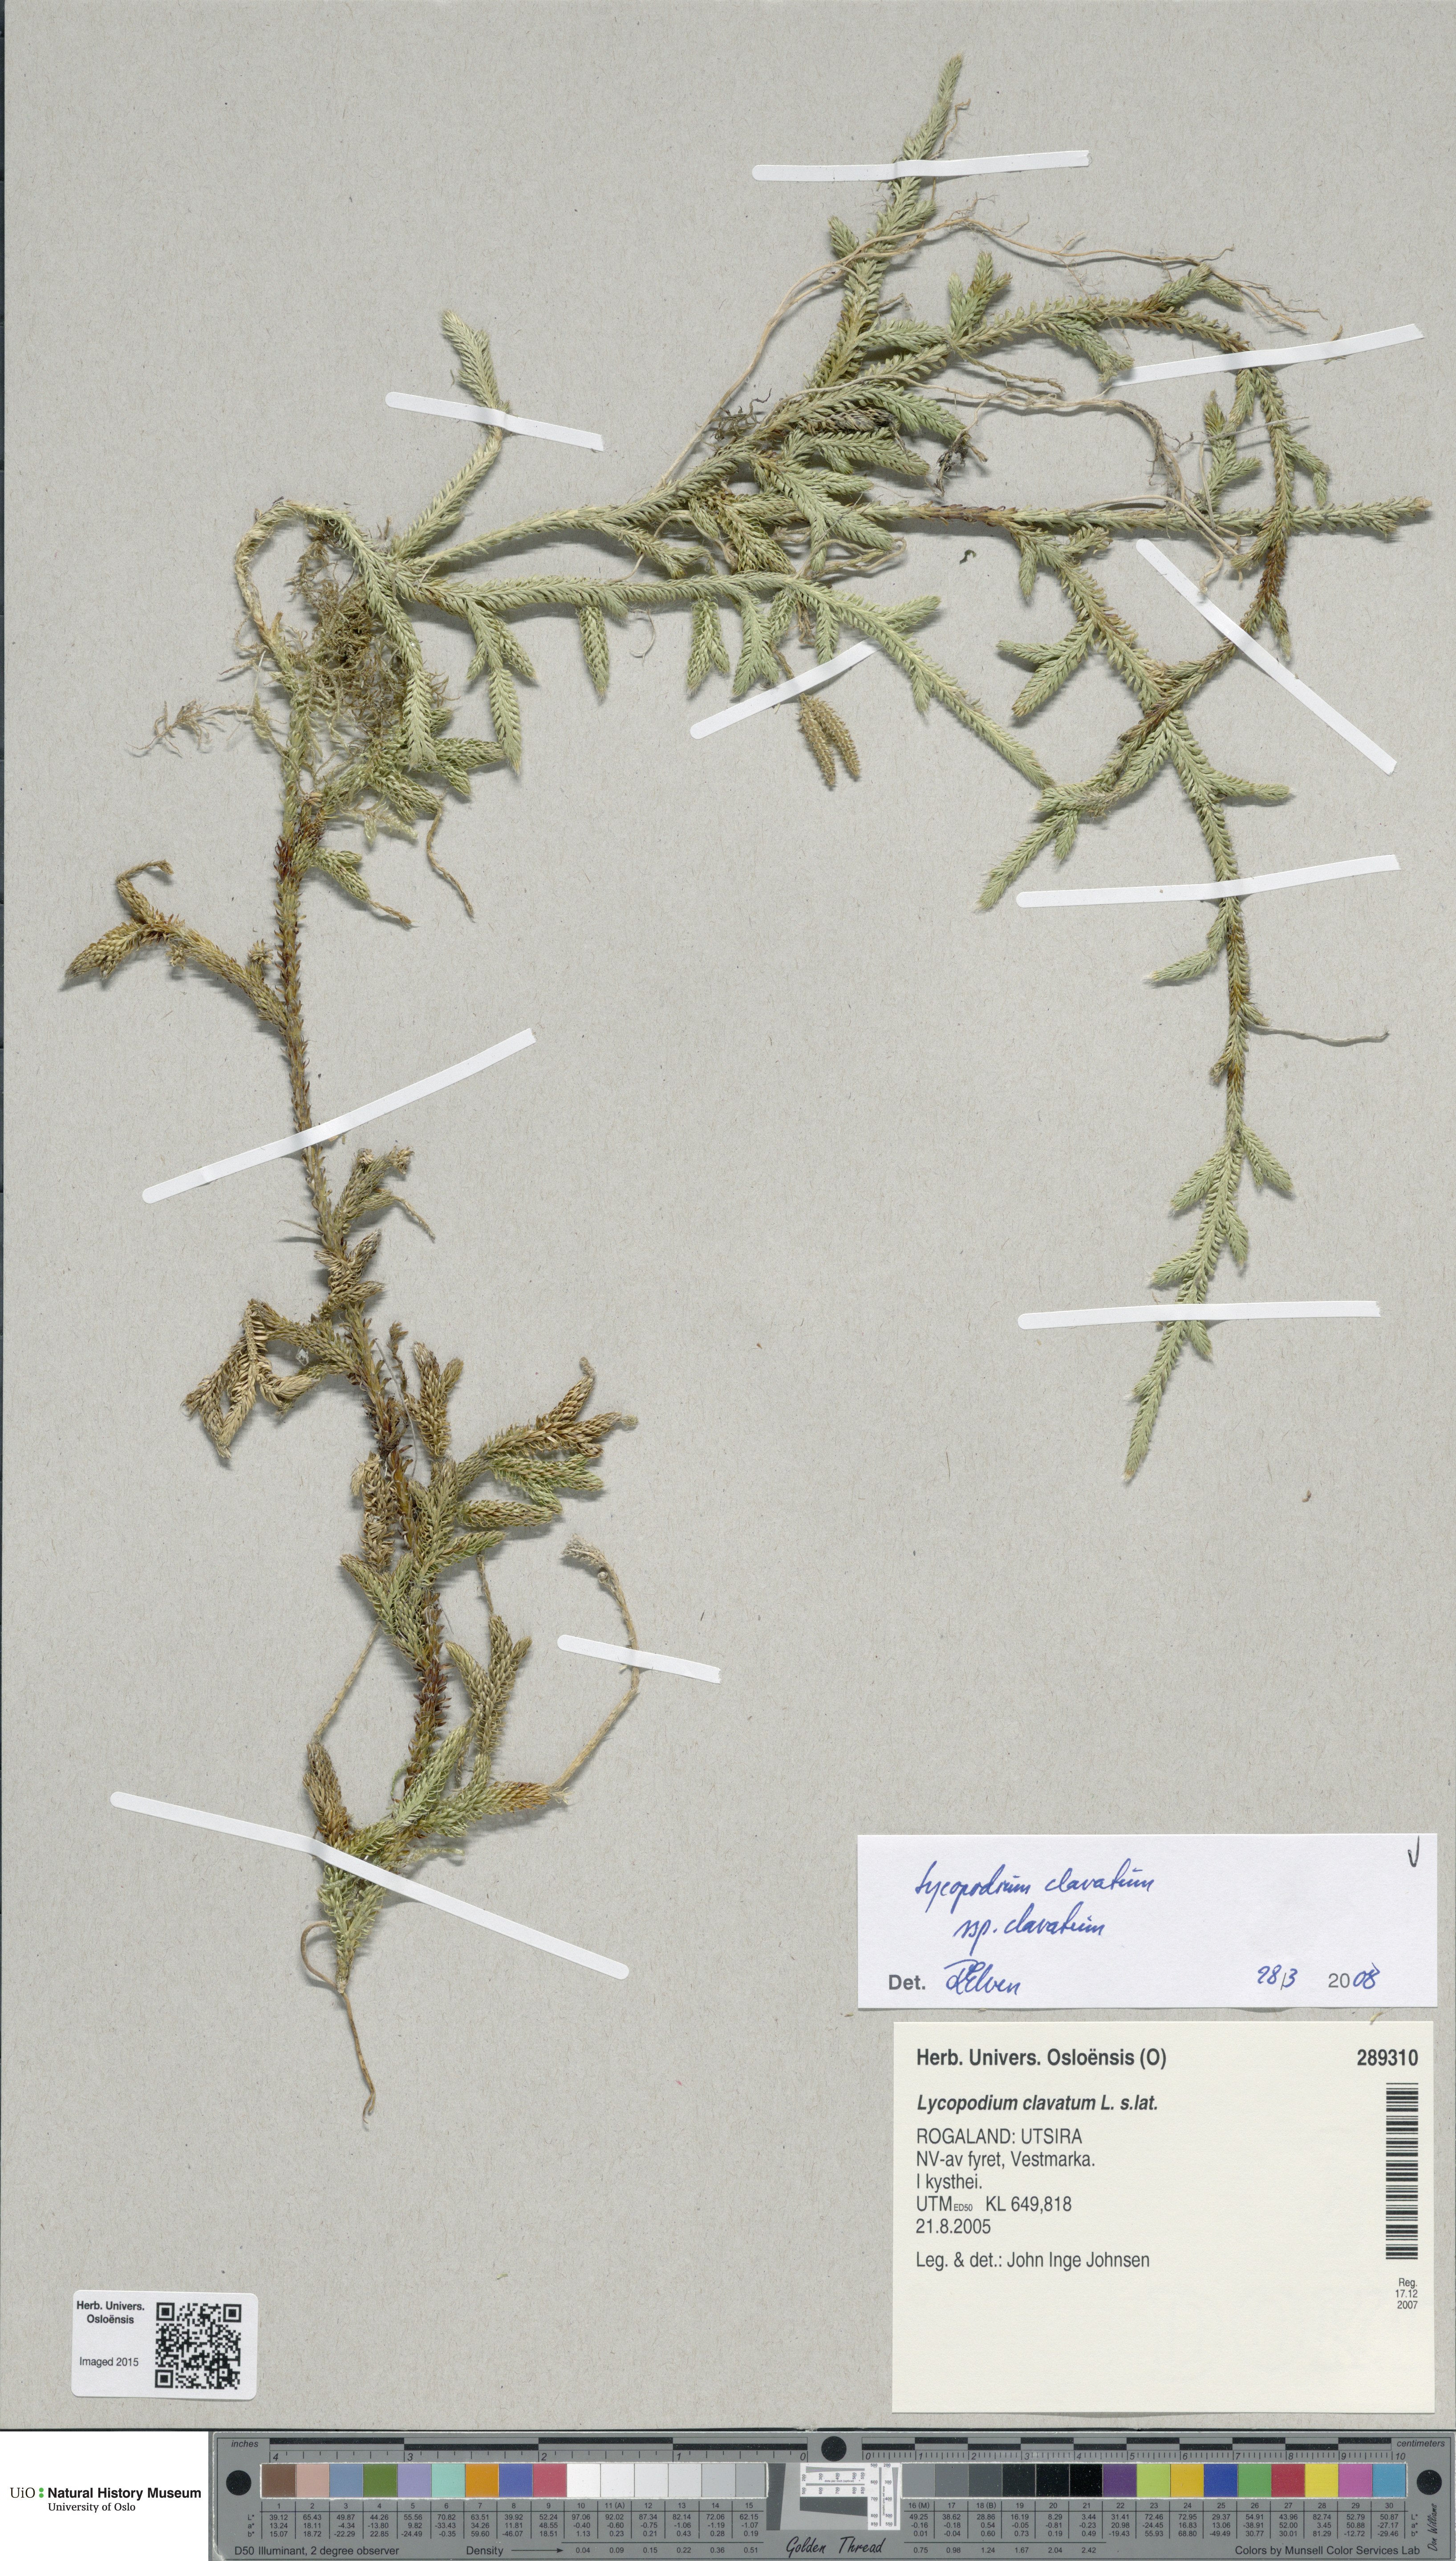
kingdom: Plantae
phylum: Tracheophyta
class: Lycopodiopsida
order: Lycopodiales
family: Lycopodiaceae
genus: Lycopodium
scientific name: Lycopodium clavatum
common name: Stag's-horn clubmoss
